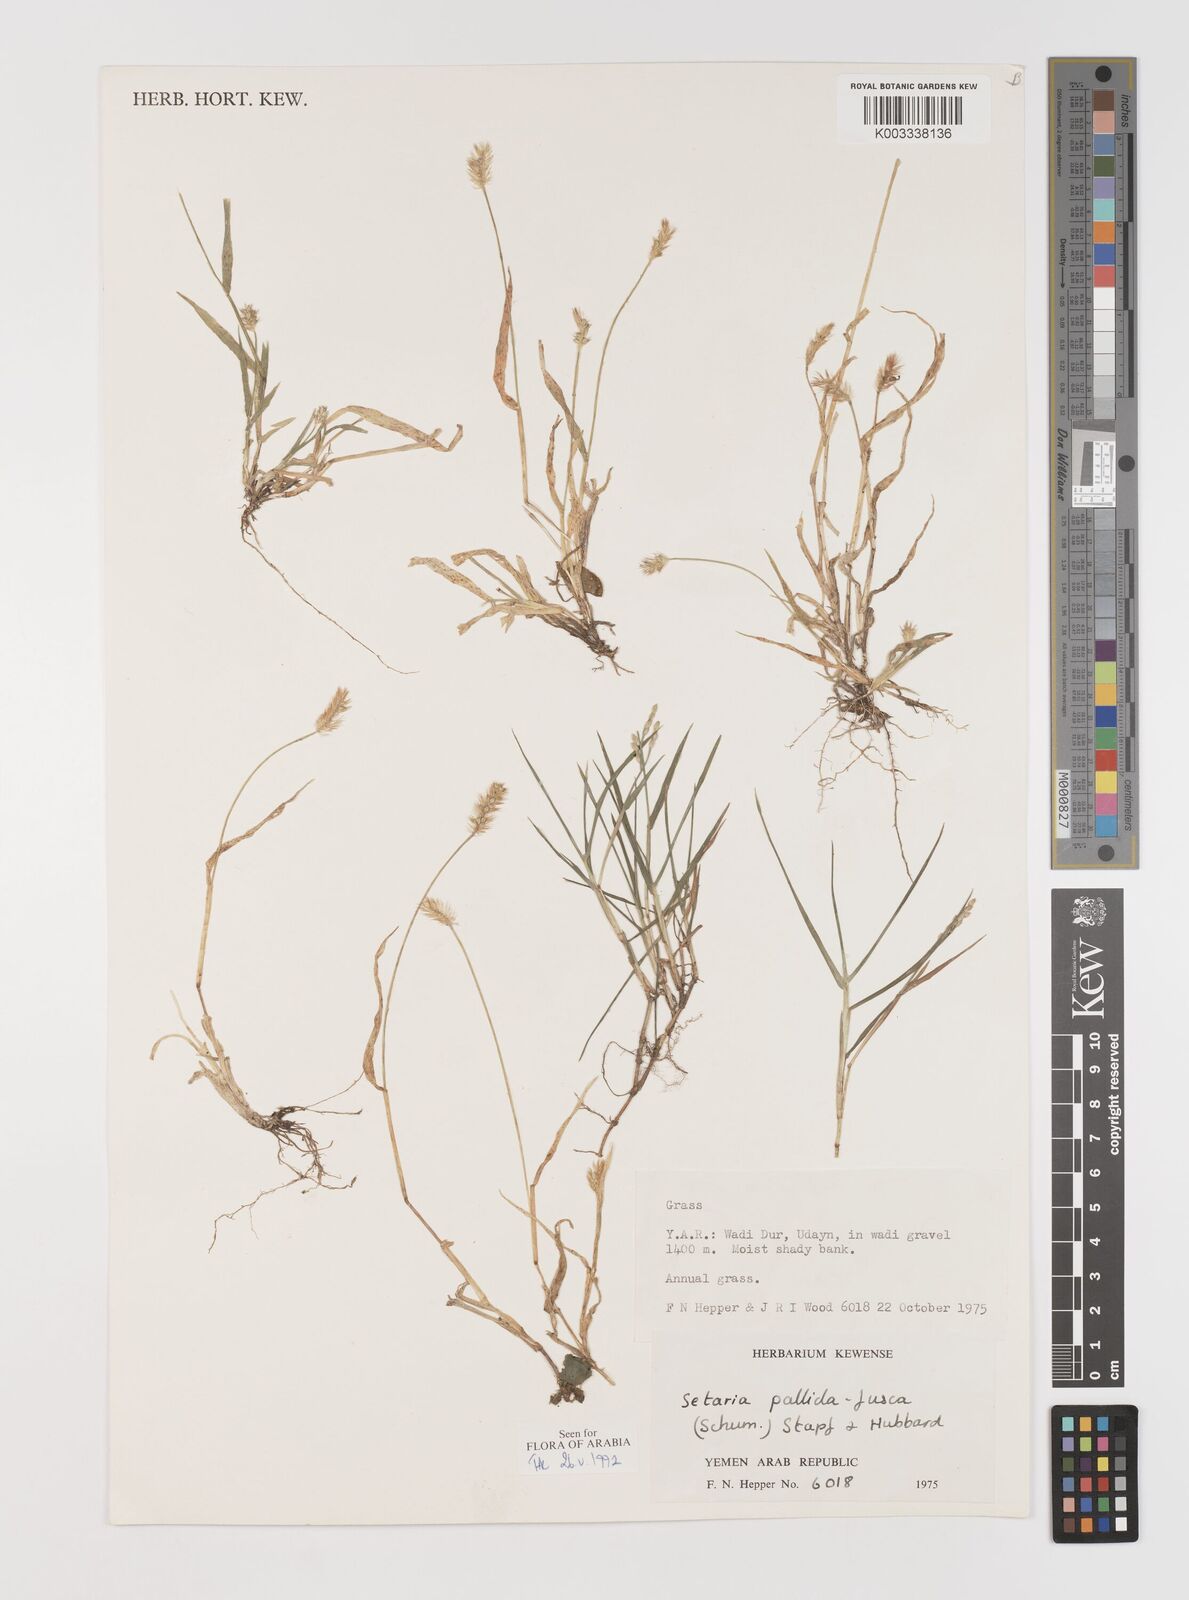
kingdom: Plantae
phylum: Tracheophyta
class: Liliopsida
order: Poales
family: Poaceae
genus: Setaria
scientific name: Setaria pumila
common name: Yellow bristle-grass
